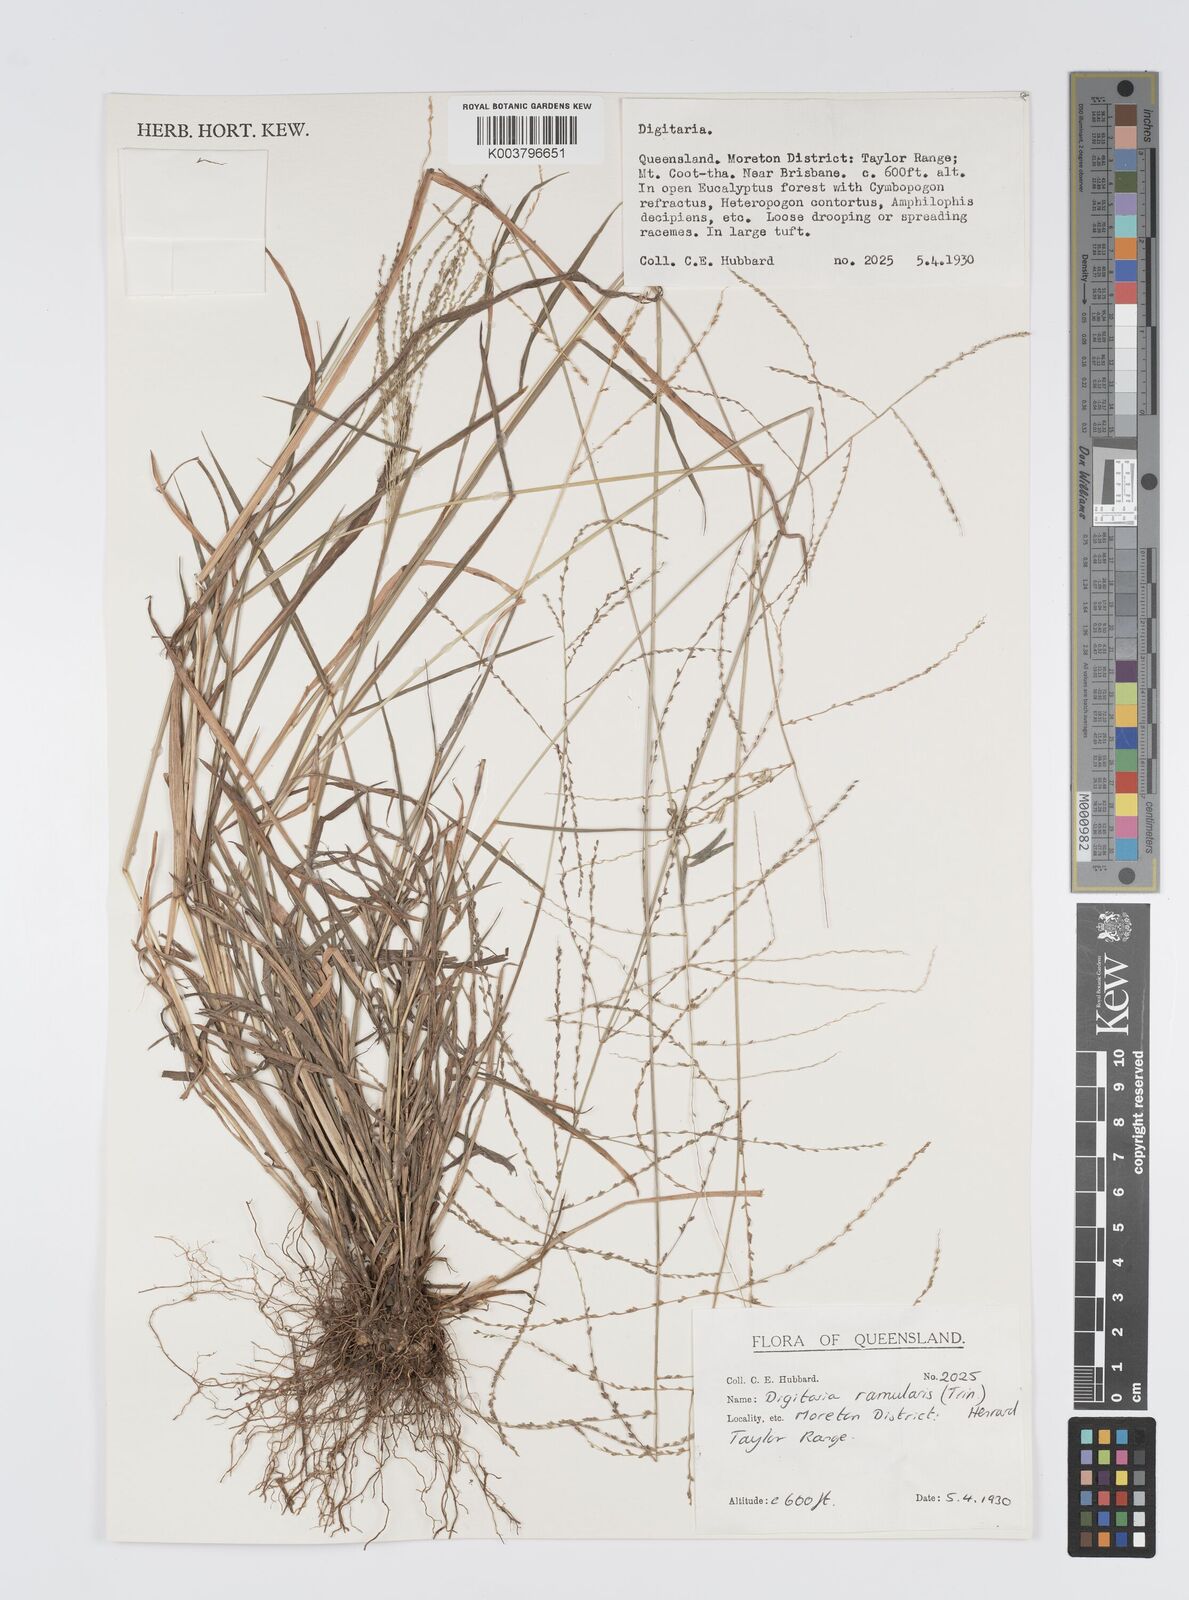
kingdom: Plantae
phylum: Tracheophyta
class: Liliopsida
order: Poales
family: Poaceae
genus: Digitaria
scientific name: Digitaria ramularis
